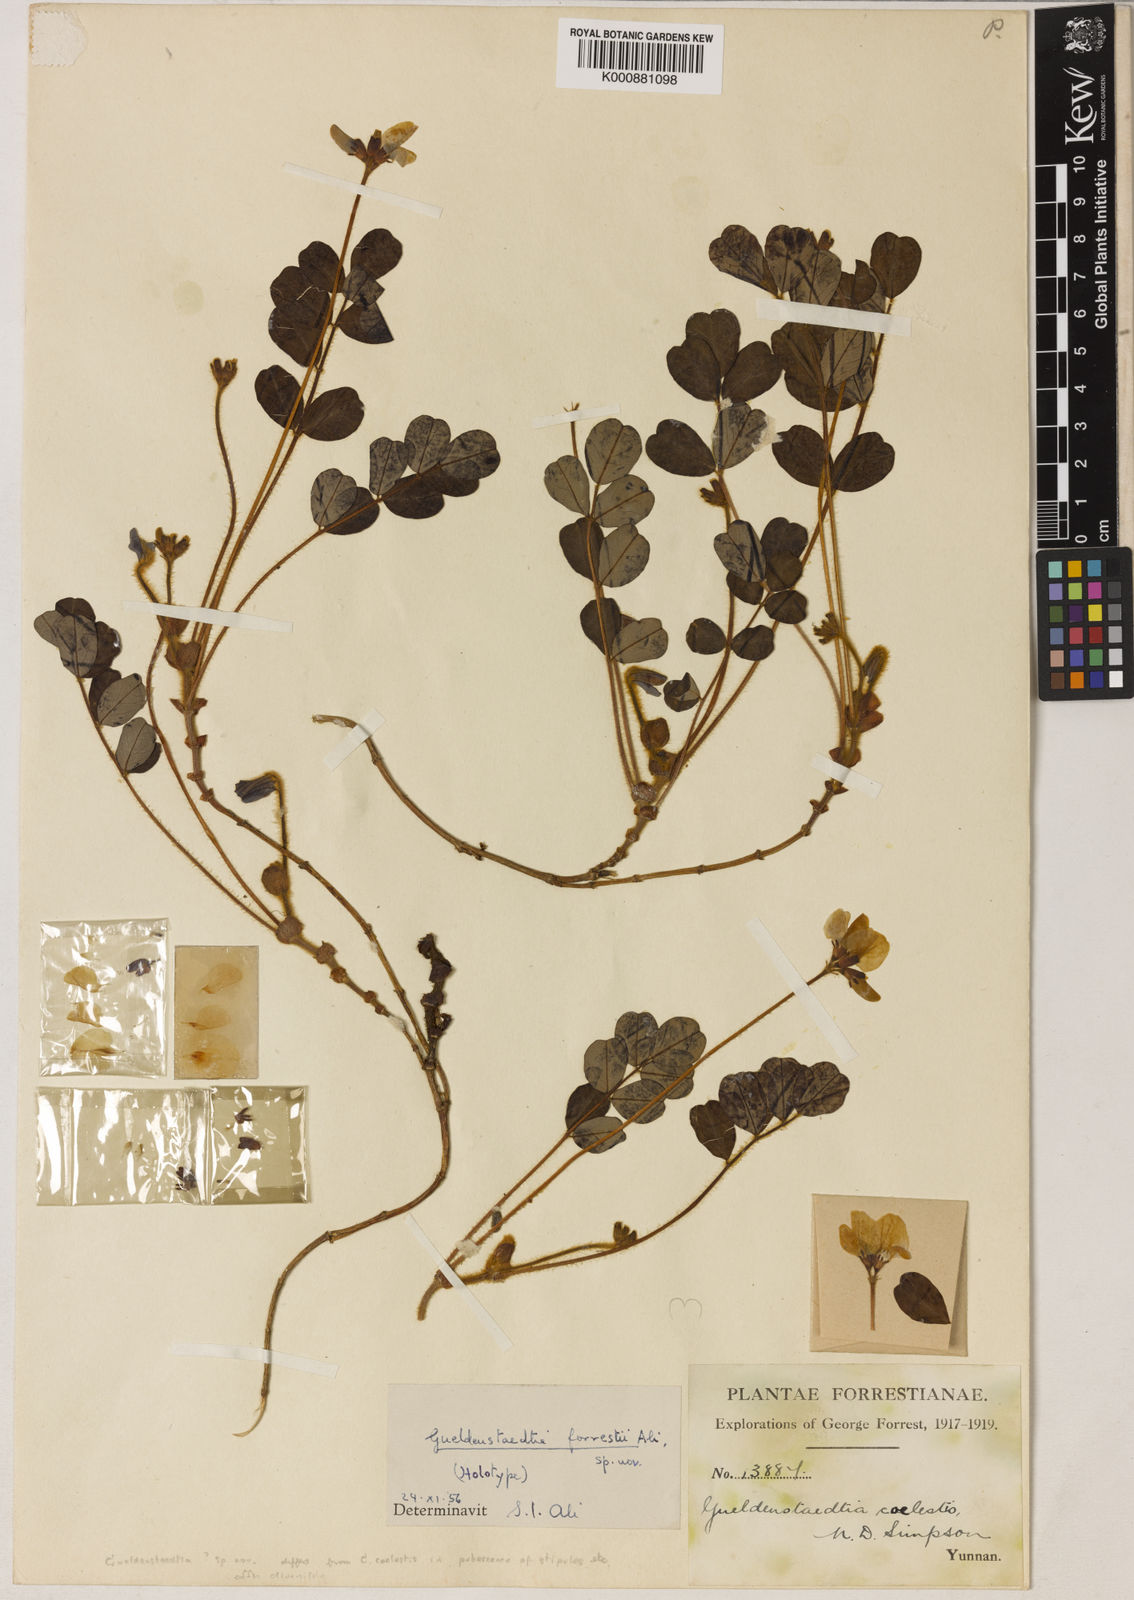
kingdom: Plantae
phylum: Tracheophyta
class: Magnoliopsida
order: Fabales
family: Fabaceae
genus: Tibetia
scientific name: Tibetia forrestii
